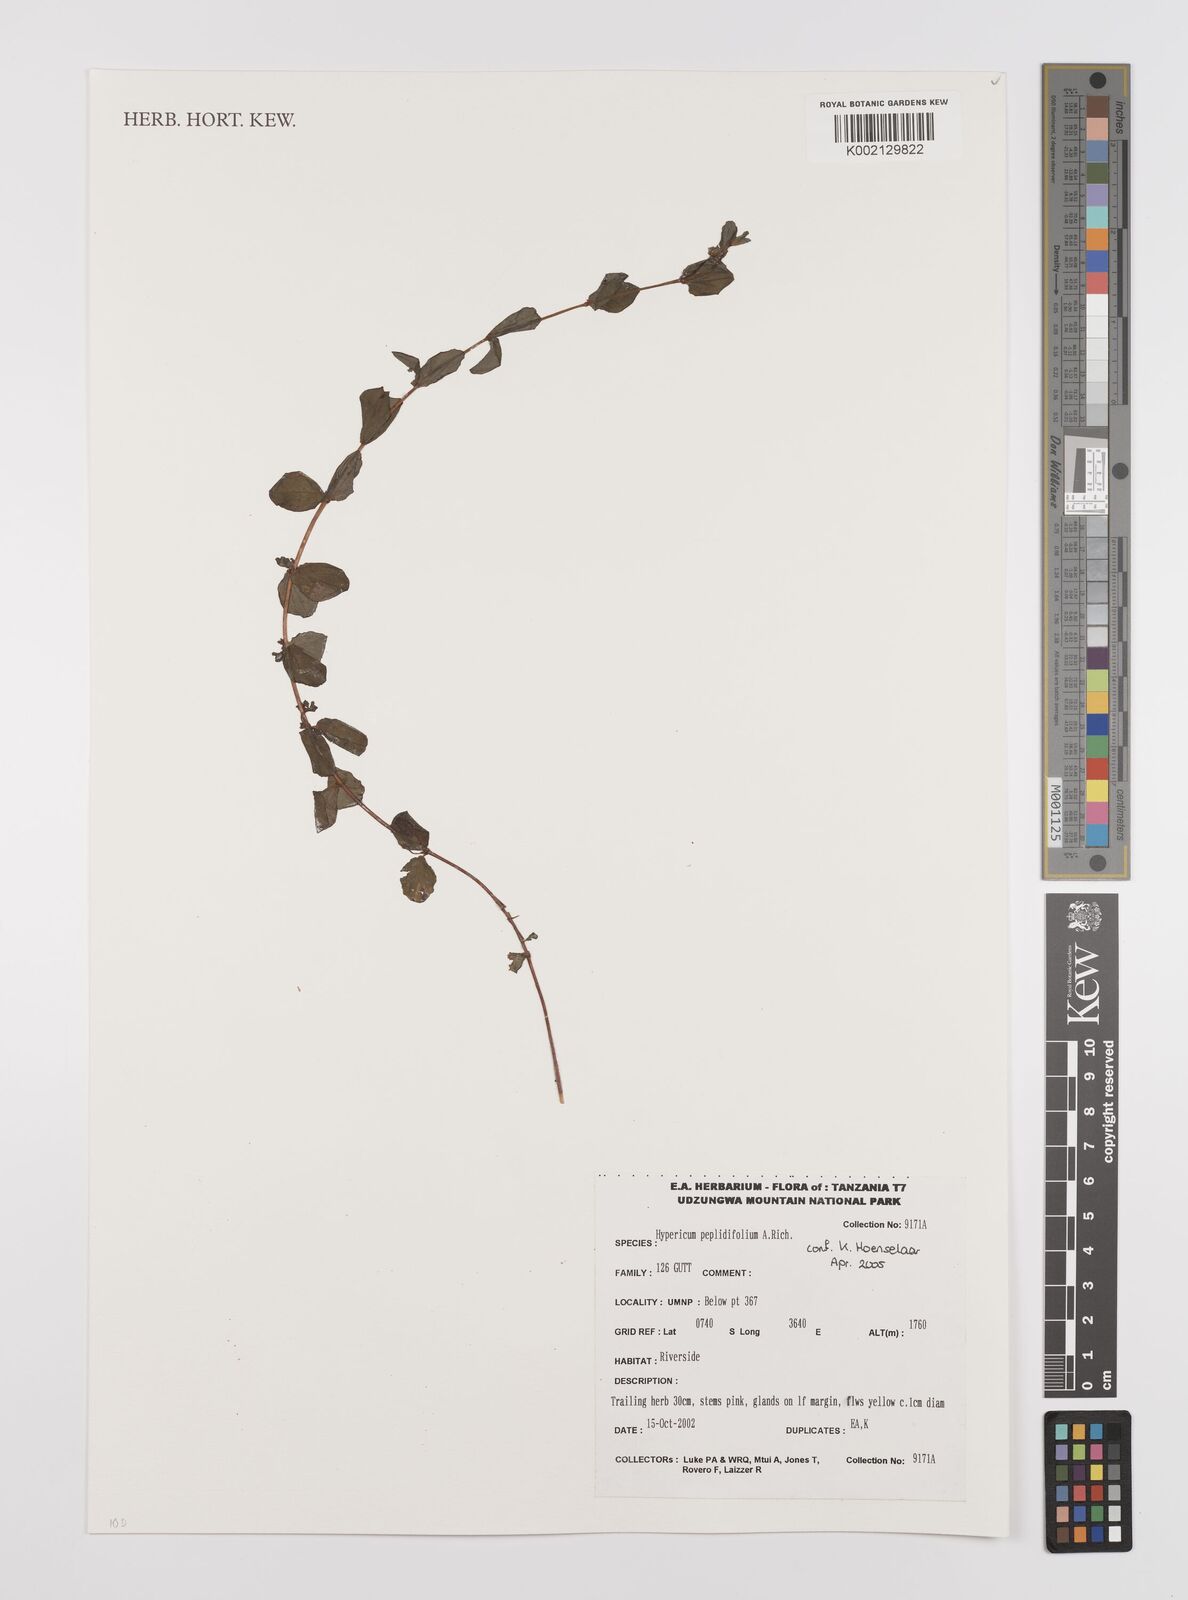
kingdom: Plantae
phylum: Tracheophyta
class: Magnoliopsida
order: Malpighiales
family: Hypericaceae
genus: Hypericum
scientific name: Hypericum peplidifolium
